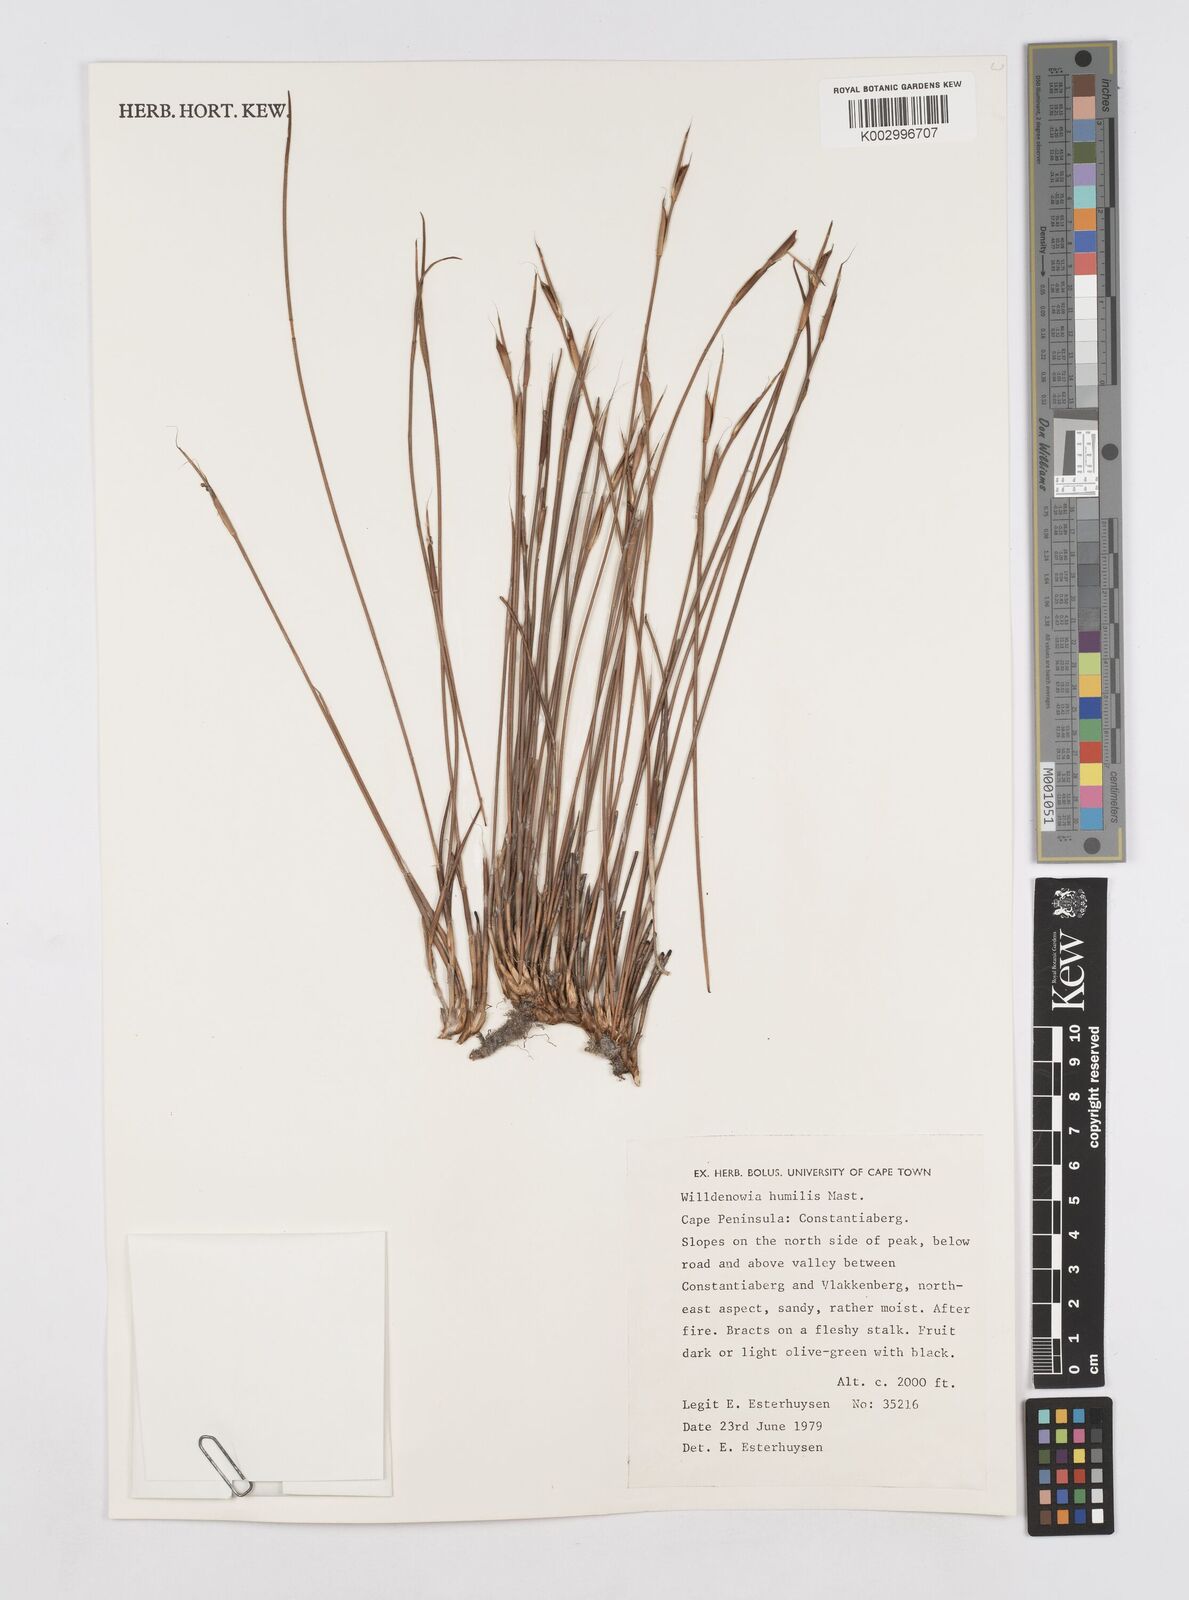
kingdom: Plantae
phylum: Tracheophyta
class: Liliopsida
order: Poales
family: Restionaceae
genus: Willdenowia
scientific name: Willdenowia humilis
